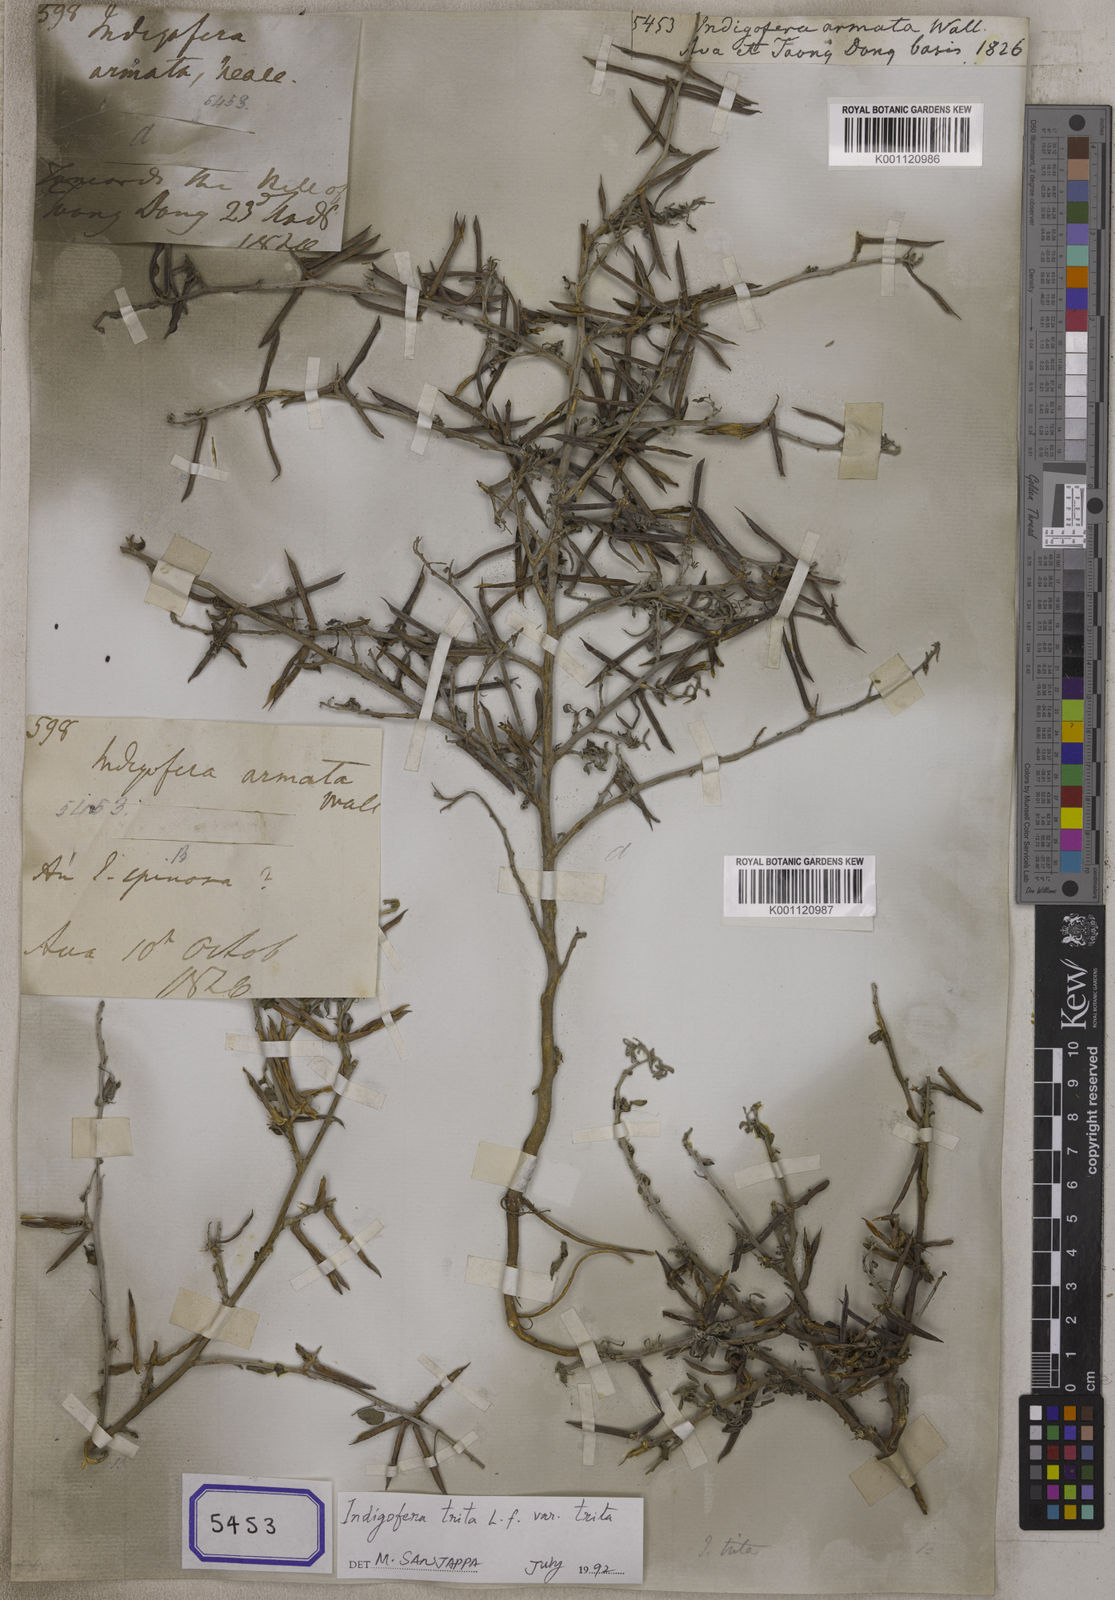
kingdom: Plantae
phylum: Tracheophyta
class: Magnoliopsida
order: Fabales
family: Fabaceae
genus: Indigofera
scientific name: Indigofera trita
